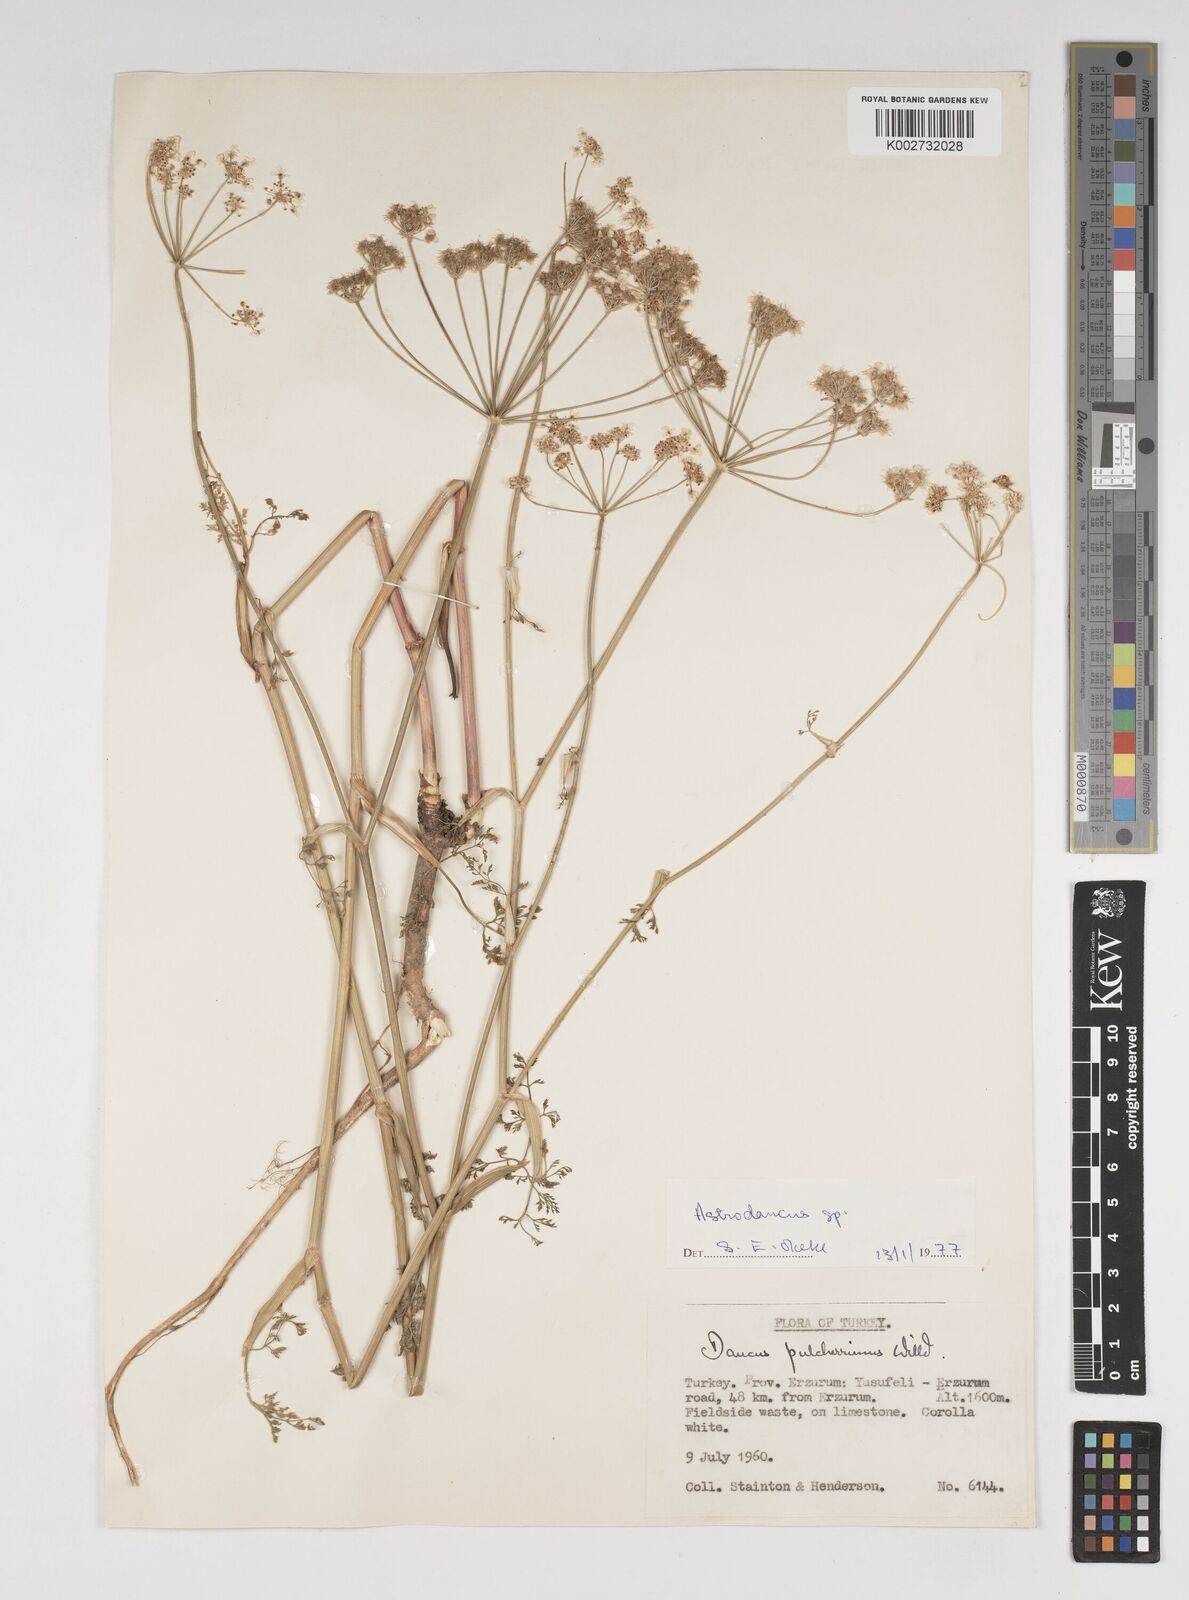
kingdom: Plantae
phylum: Tracheophyta
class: Magnoliopsida
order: Apiales
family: Apiaceae
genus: Astrodaucus
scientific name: Astrodaucus
